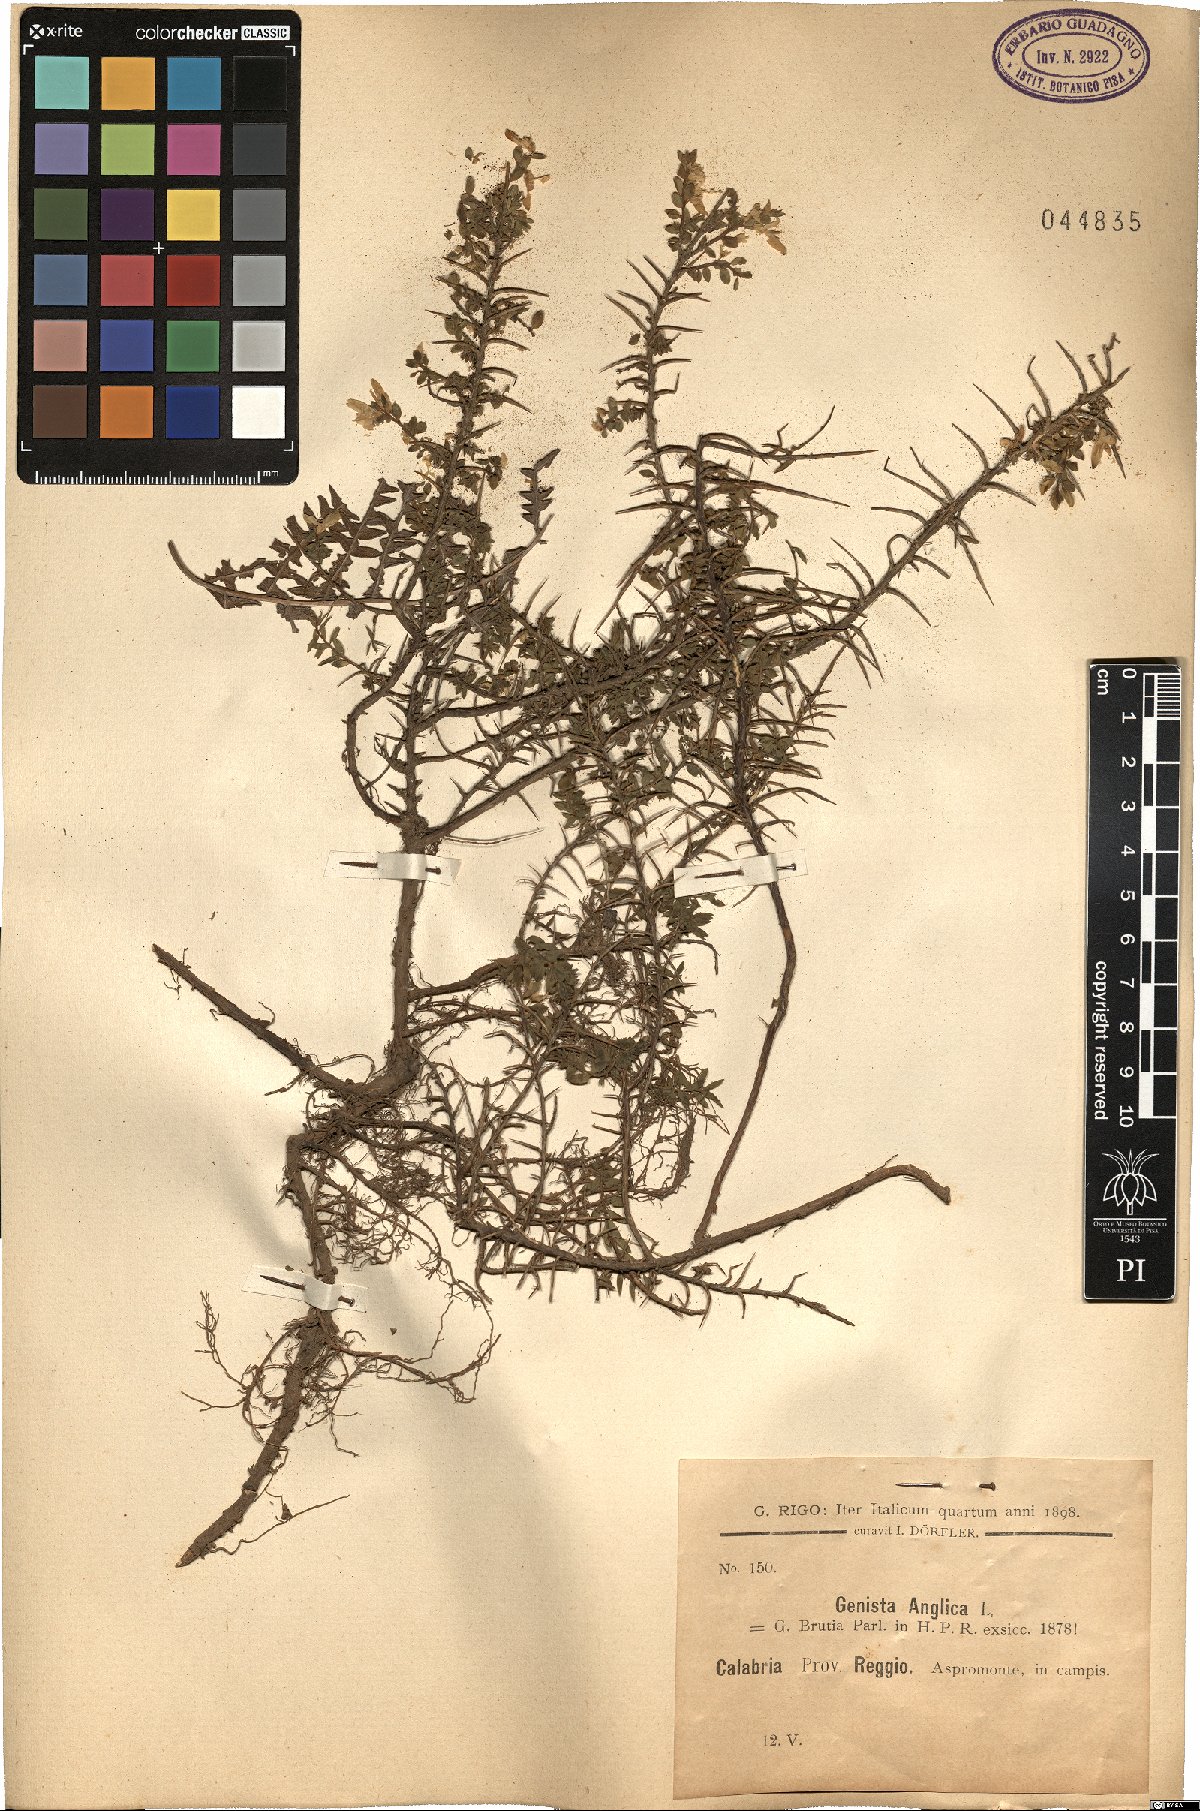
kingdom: Plantae
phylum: Tracheophyta
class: Magnoliopsida
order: Fabales
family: Fabaceae
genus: Genista
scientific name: Genista anglica
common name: Petty whin
